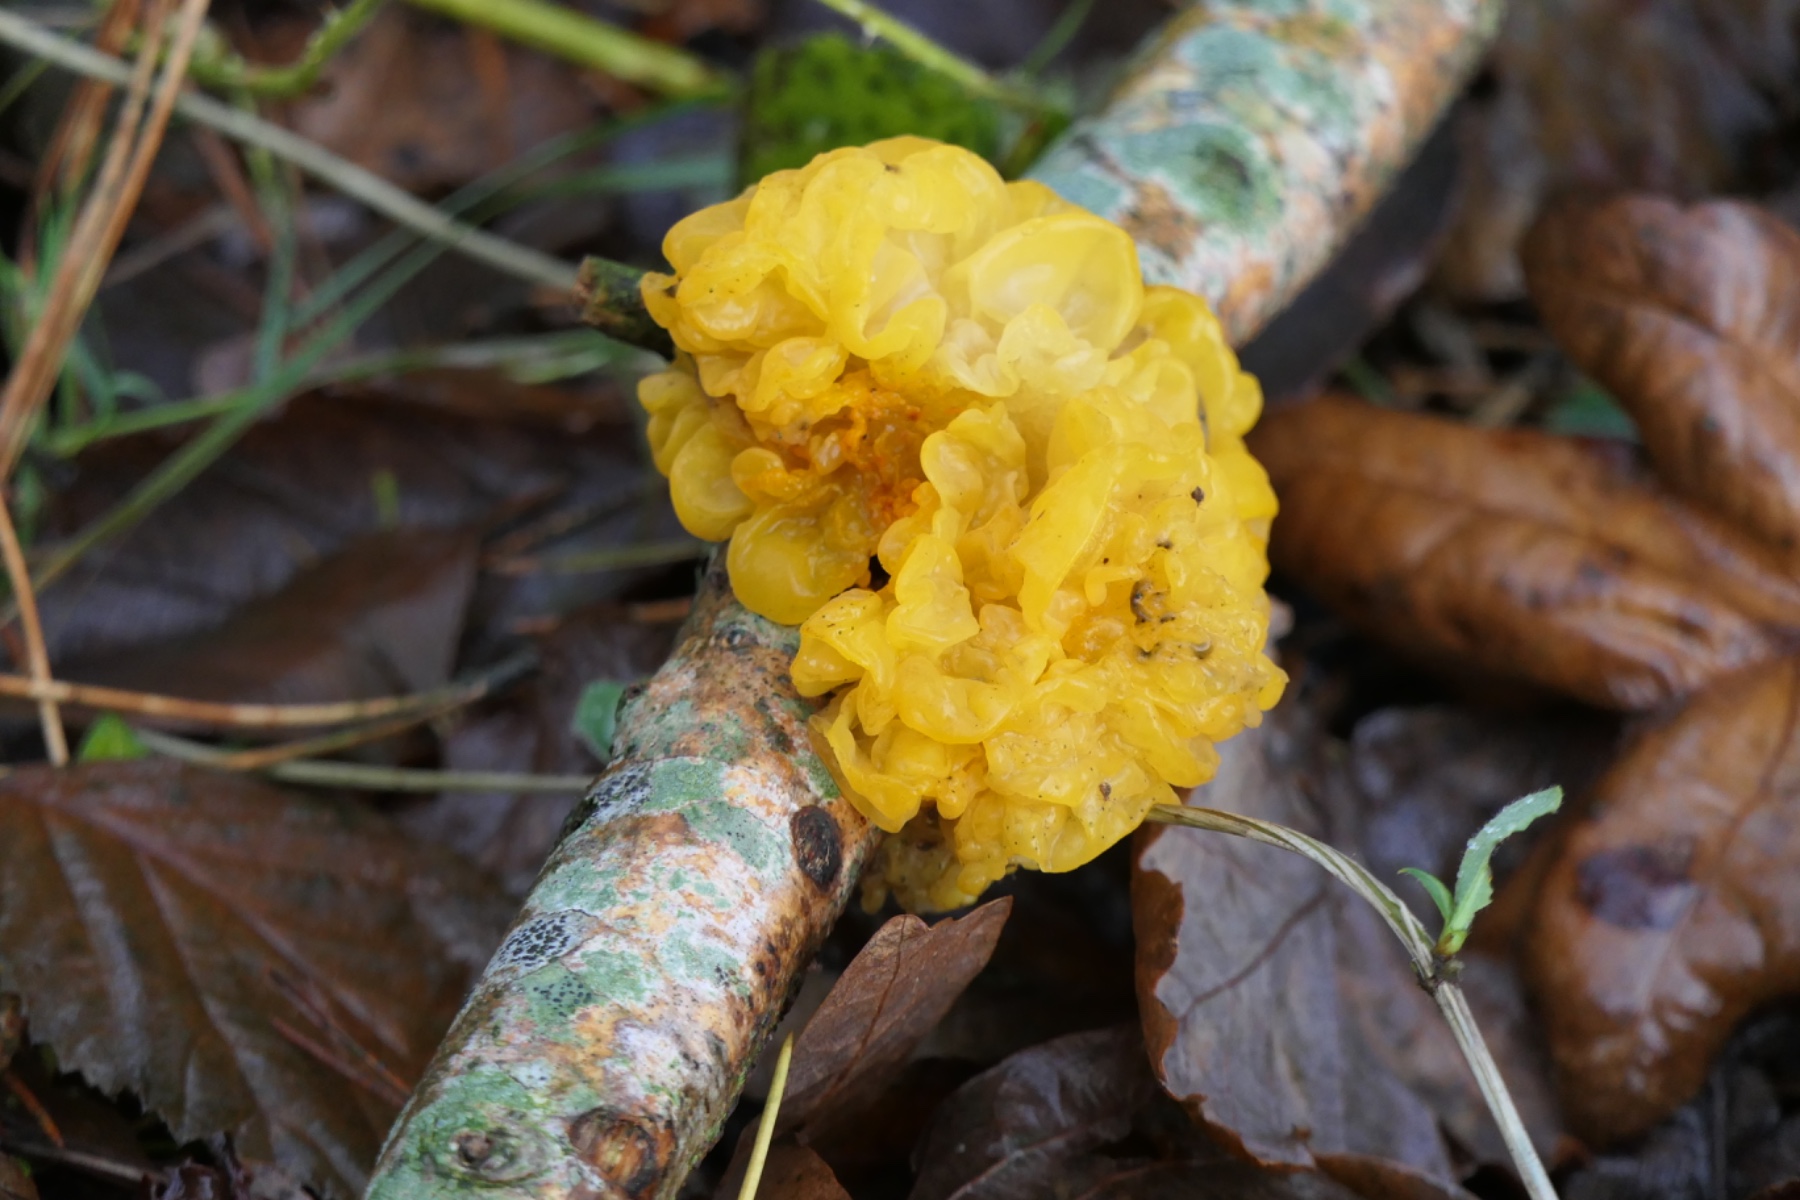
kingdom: Fungi
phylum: Basidiomycota
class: Tremellomycetes
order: Tremellales
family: Tremellaceae
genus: Tremella
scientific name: Tremella mesenterica
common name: gul bævresvamp
